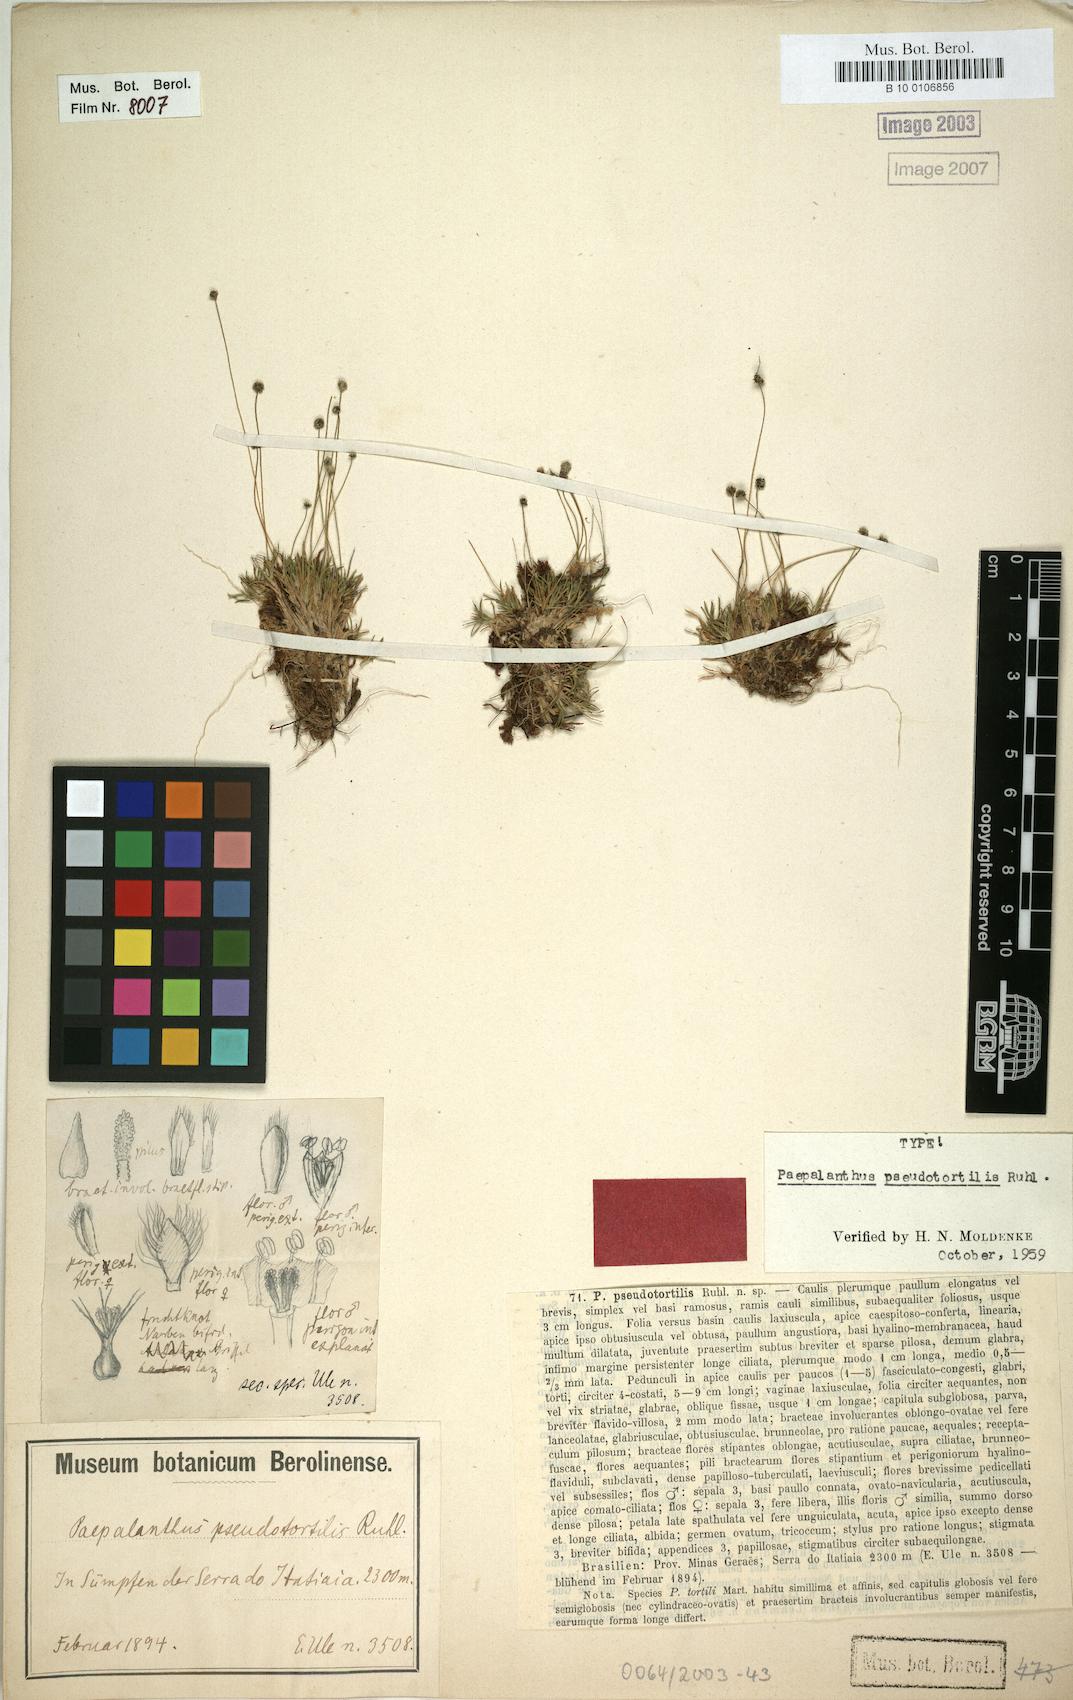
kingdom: Plantae
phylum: Tracheophyta
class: Liliopsida
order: Poales
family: Eriocaulaceae
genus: Paepalanthus
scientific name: Paepalanthus pseudotortilis
